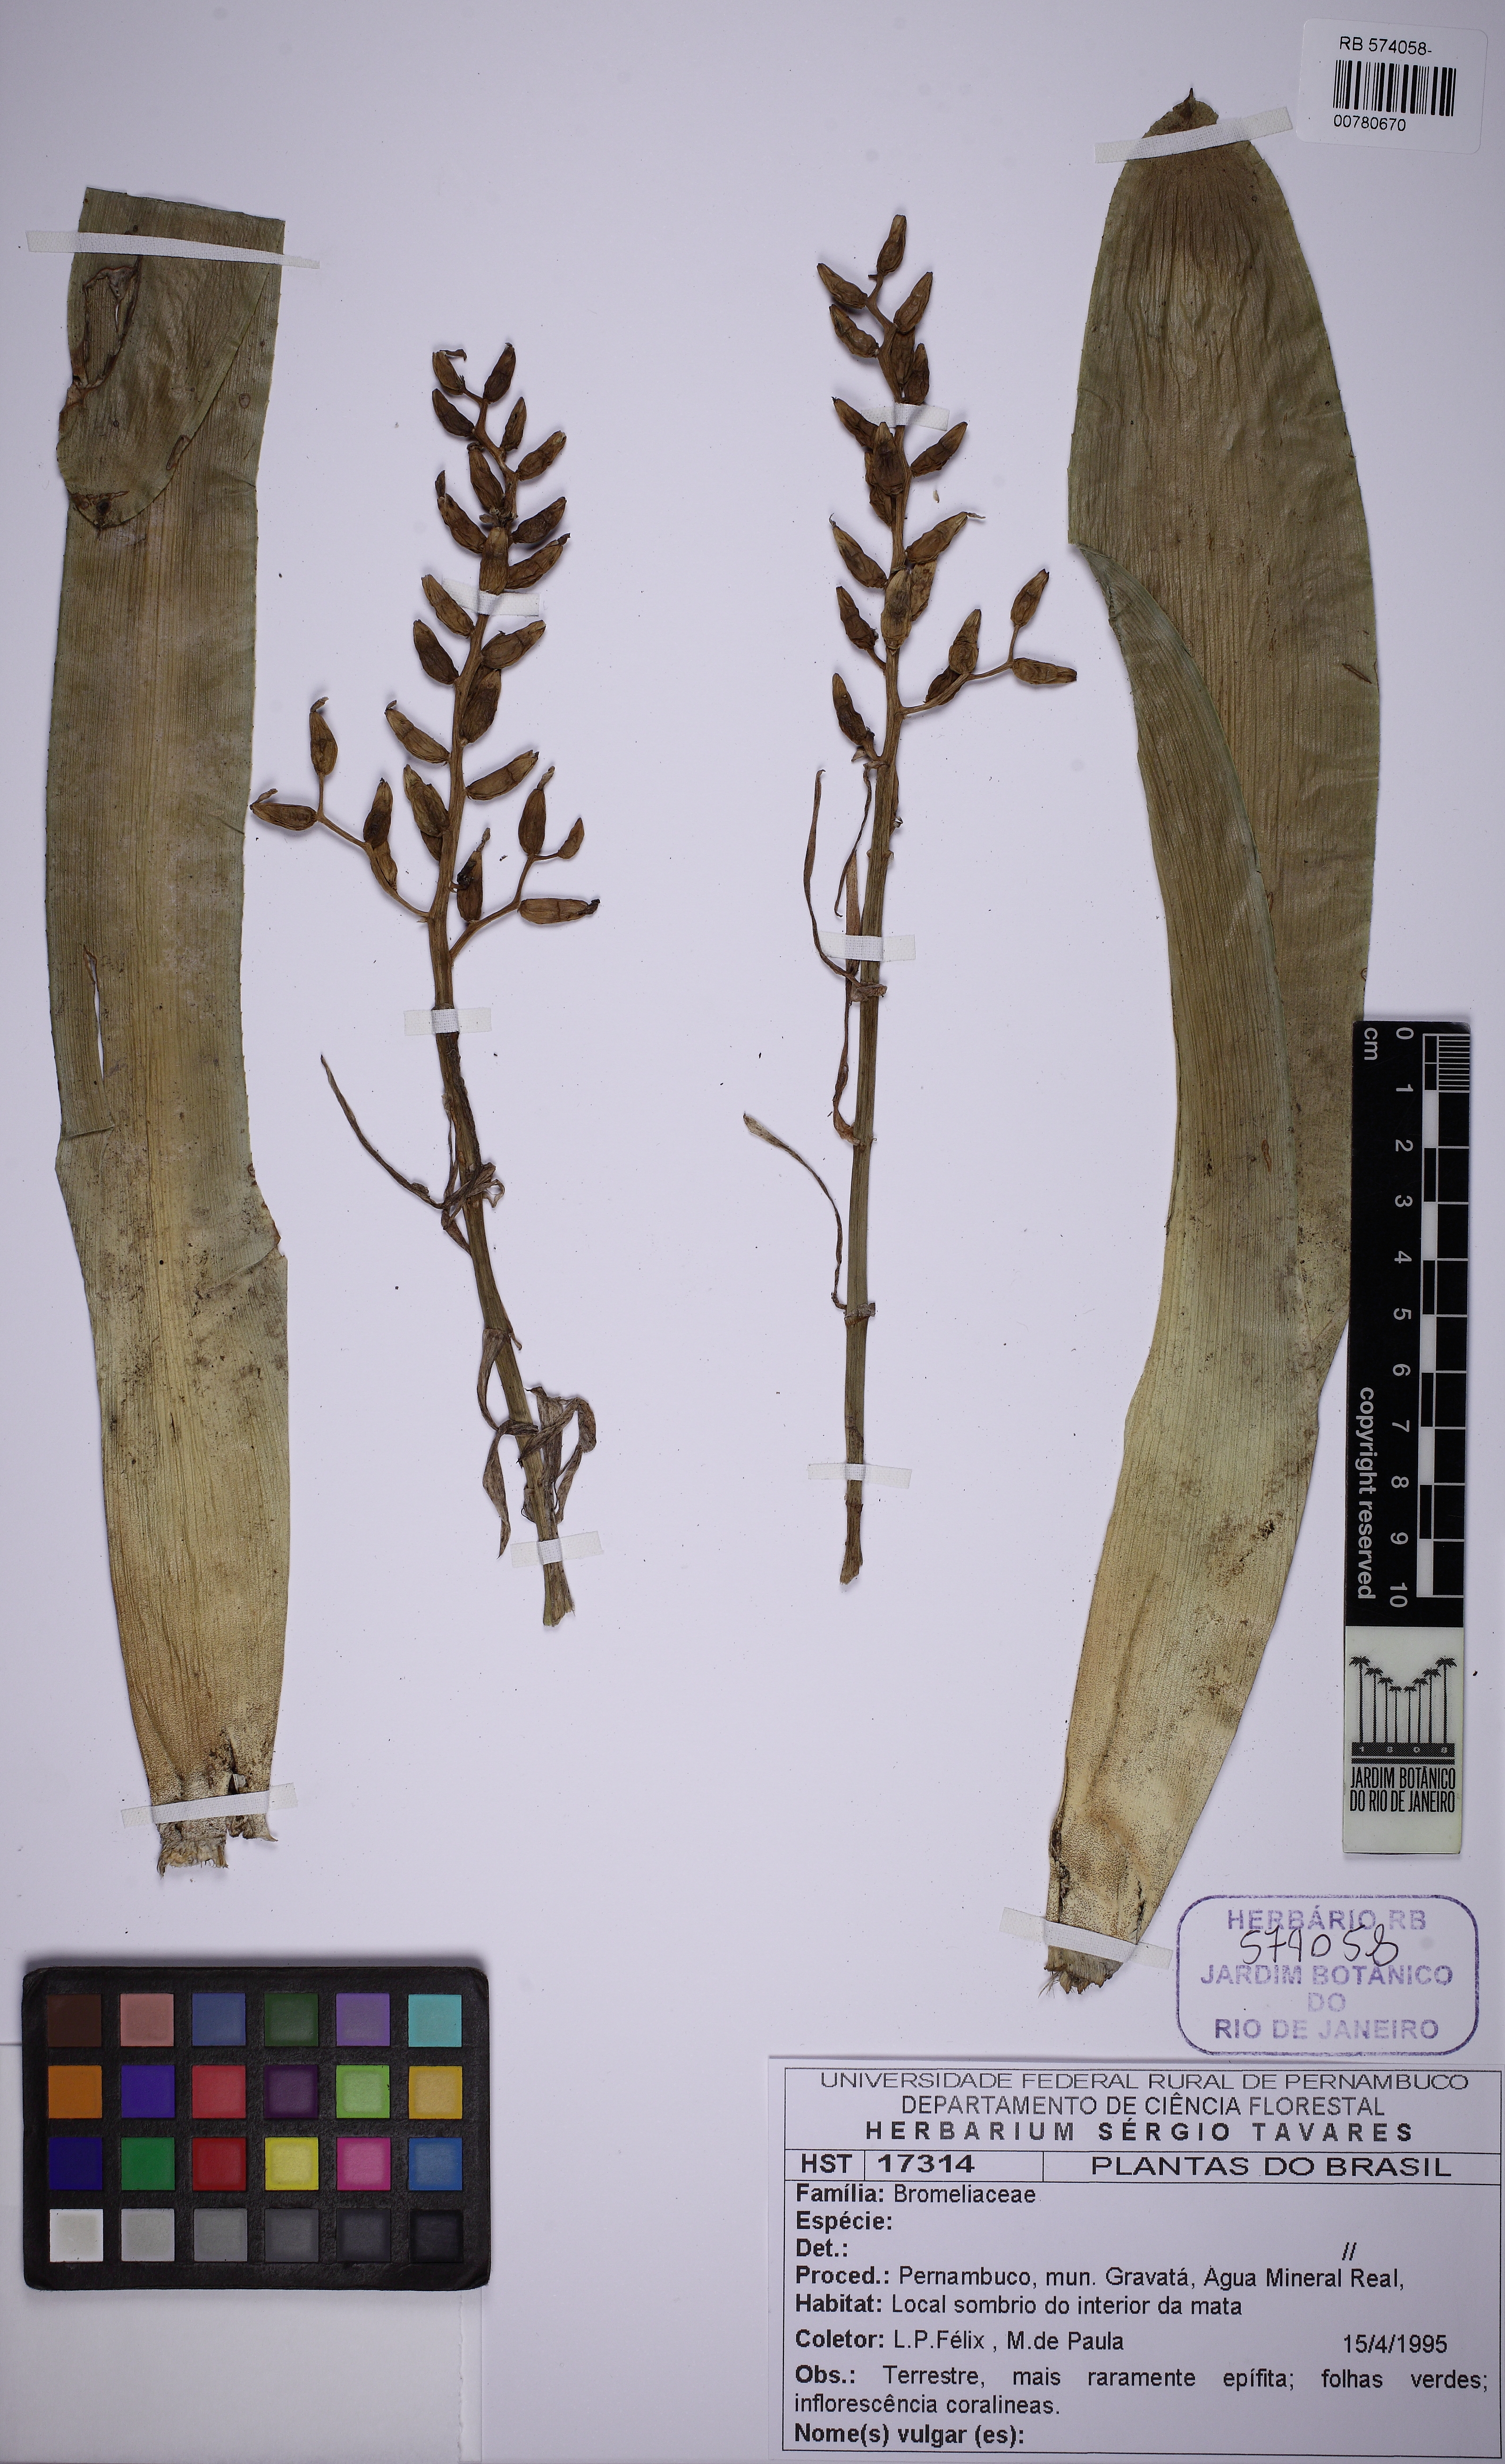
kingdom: Plantae
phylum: Tracheophyta
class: Liliopsida
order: Poales
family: Bromeliaceae
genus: Aechmea
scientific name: Aechmea fulgens
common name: Coralberry
